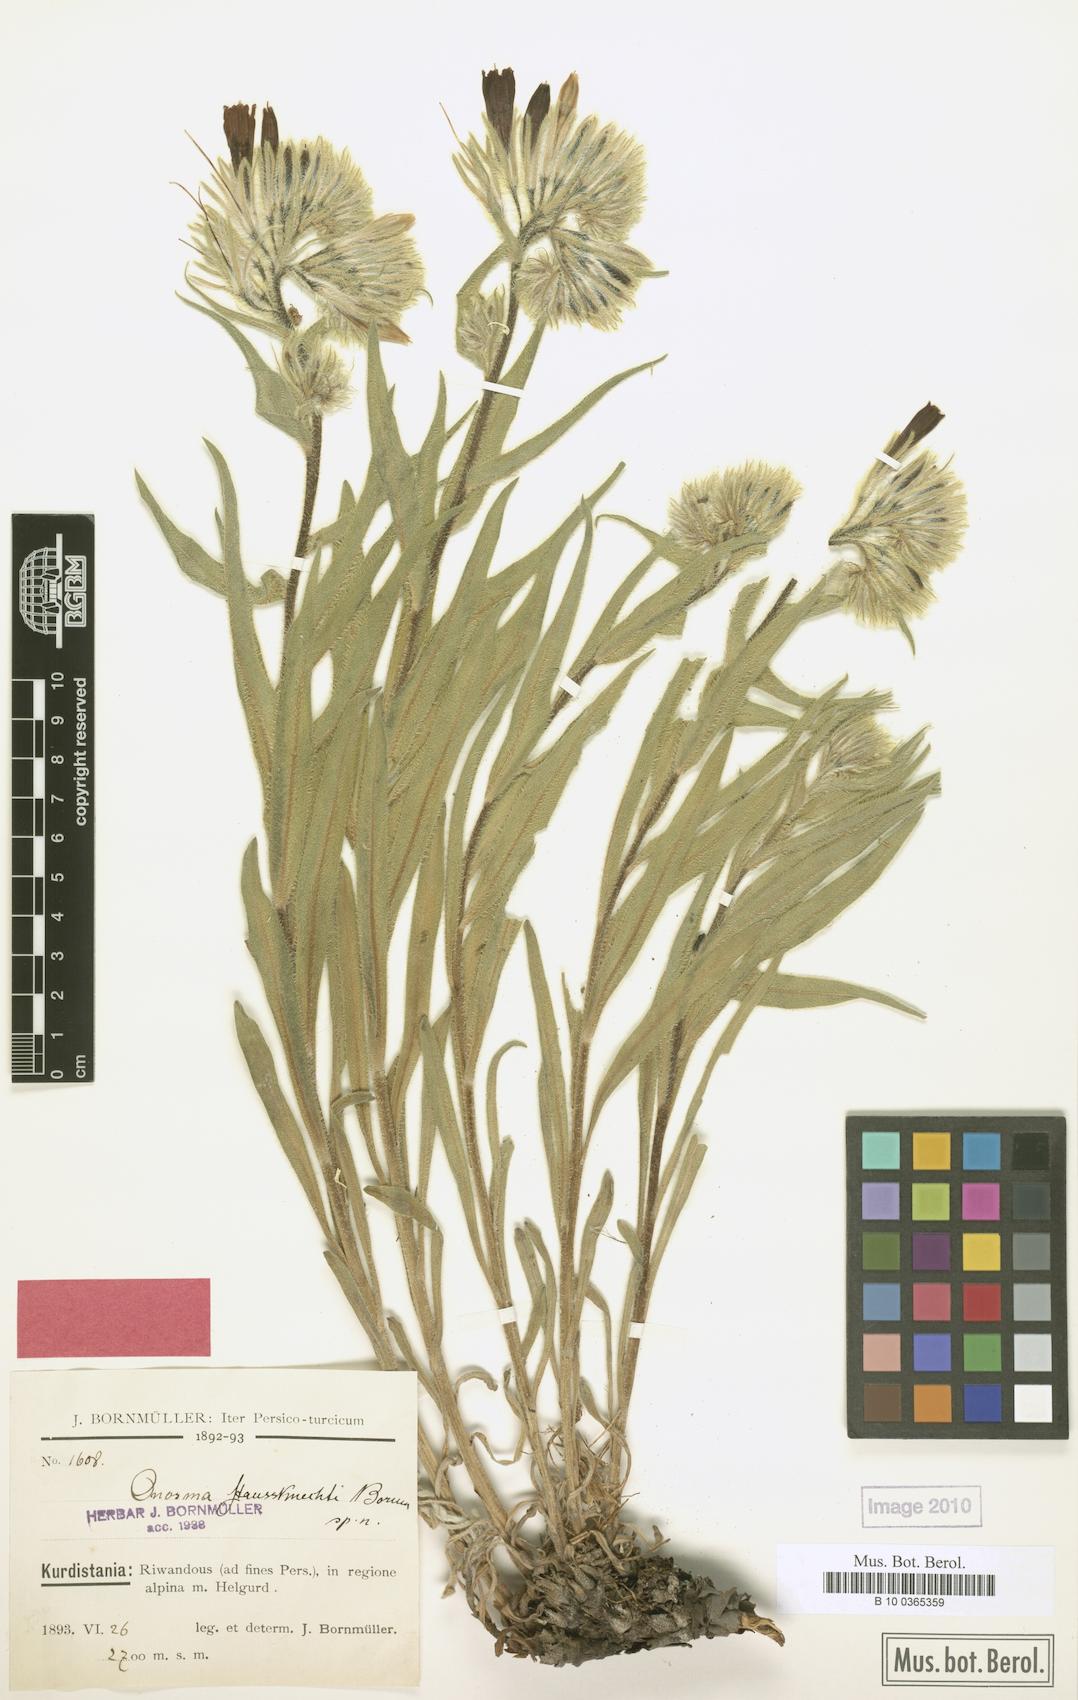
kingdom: Plantae
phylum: Tracheophyta
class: Magnoliopsida
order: Boraginales
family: Boraginaceae
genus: Onosma
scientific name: Onosma haussknechtii
